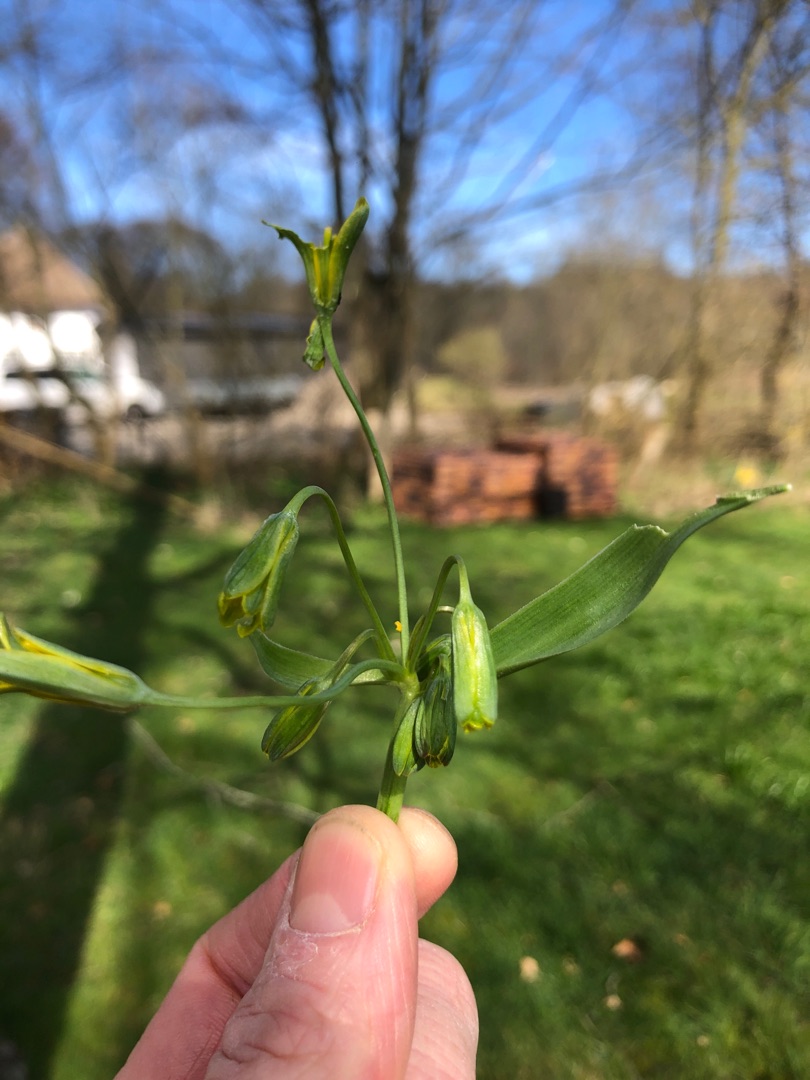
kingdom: Plantae
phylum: Tracheophyta
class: Liliopsida
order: Liliales
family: Liliaceae
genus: Gagea
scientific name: Gagea lutea
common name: Almindelig guldstjerne
